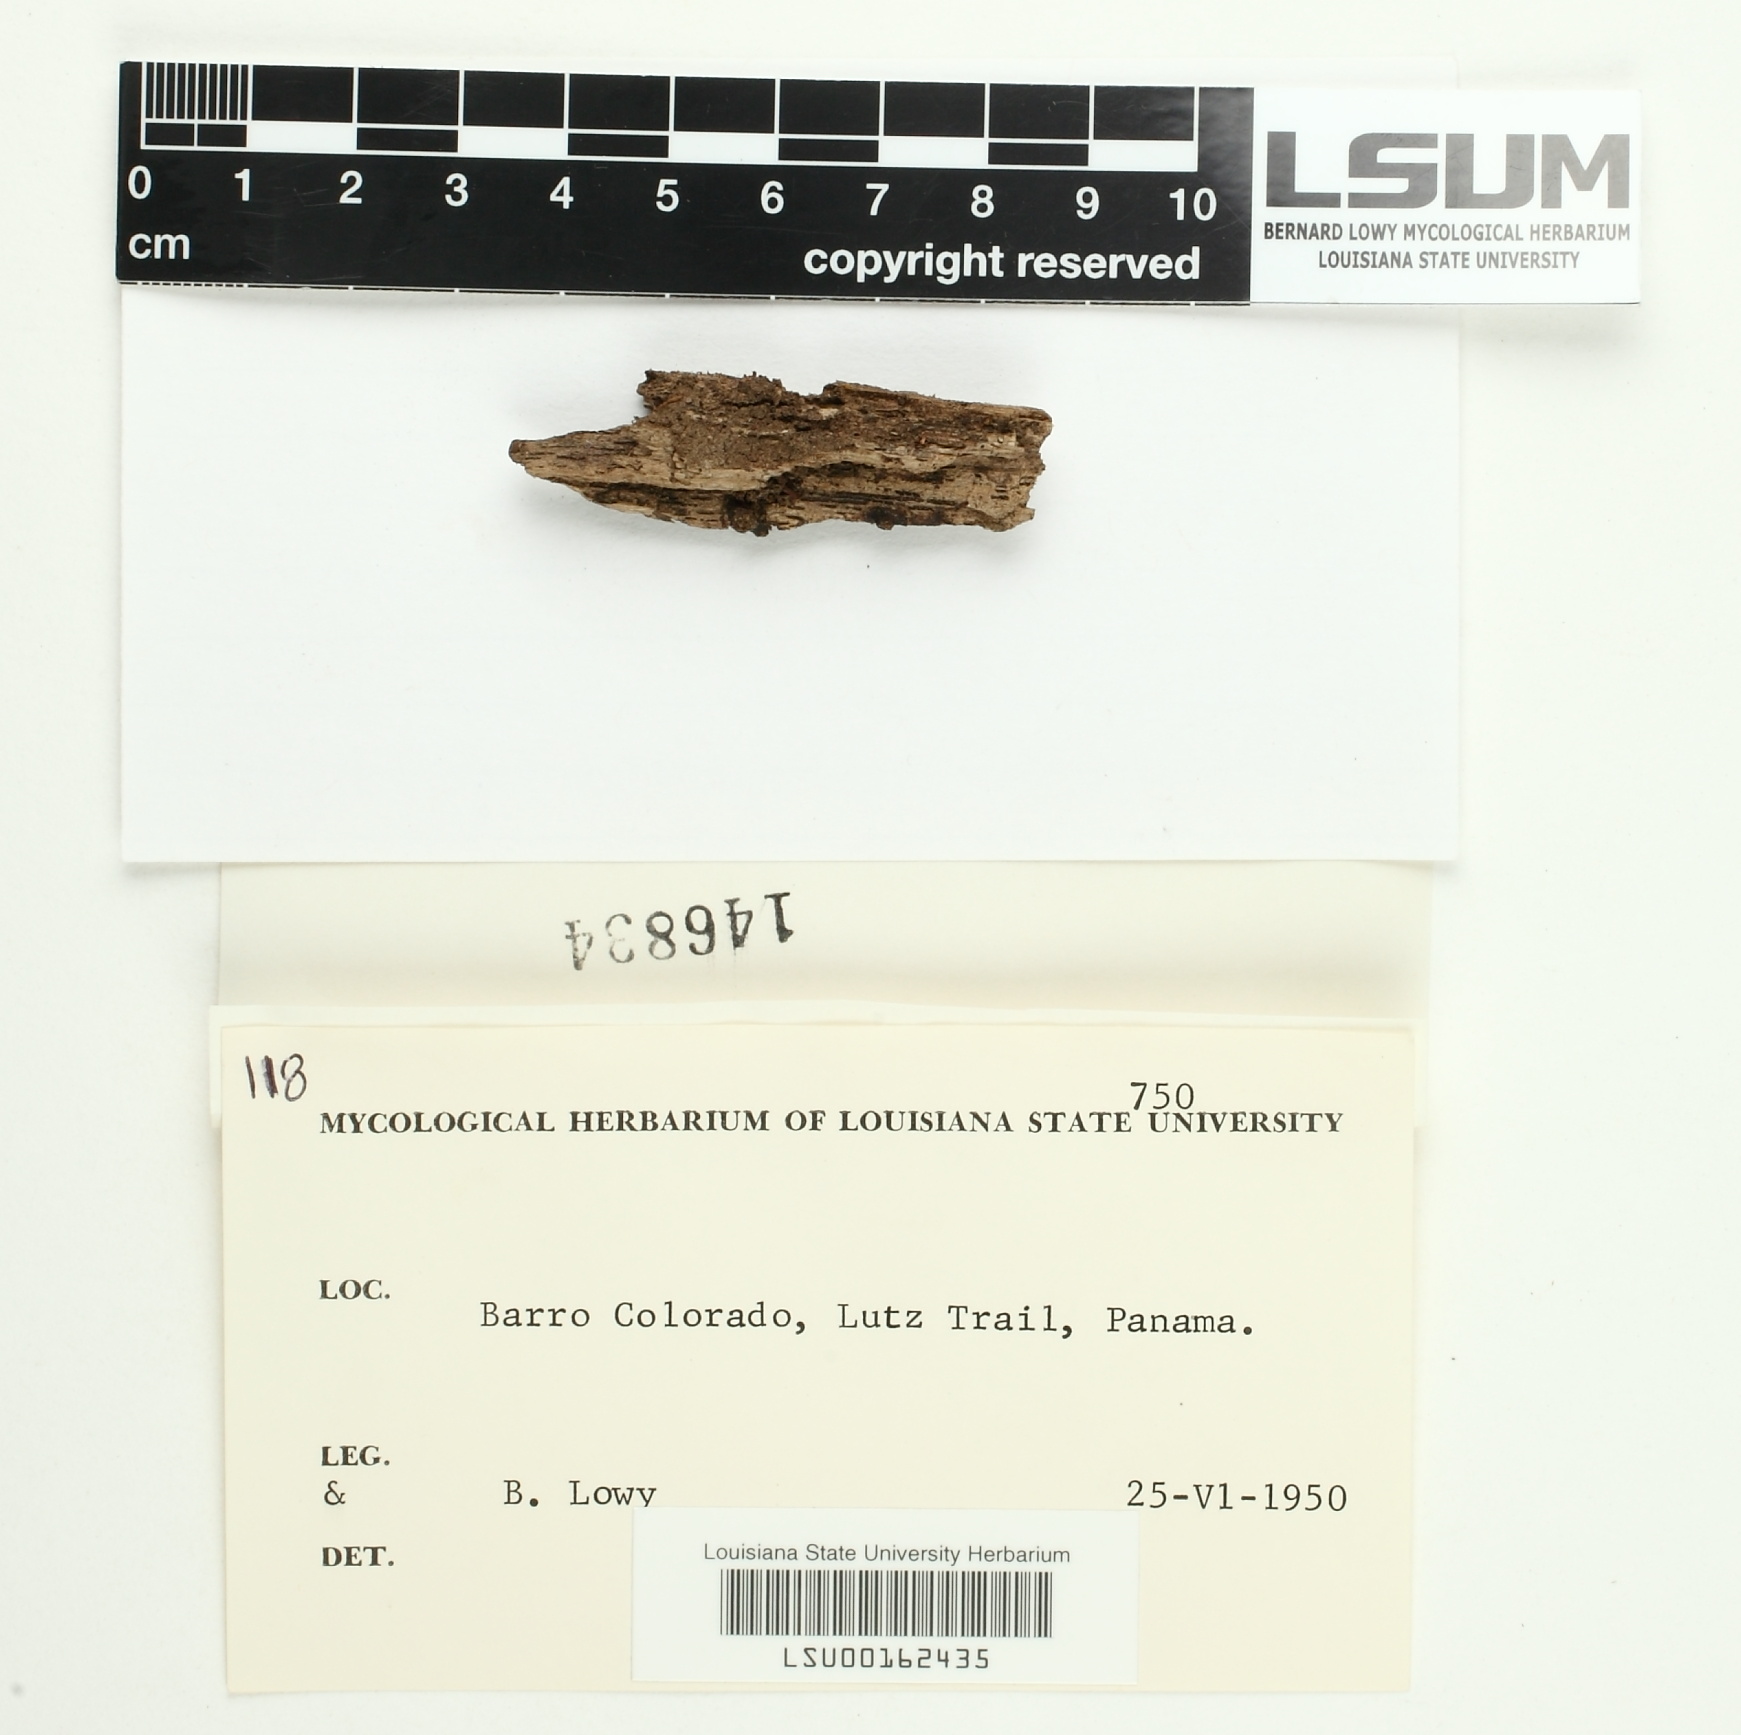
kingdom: Fungi
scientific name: Fungi
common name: Fungi
